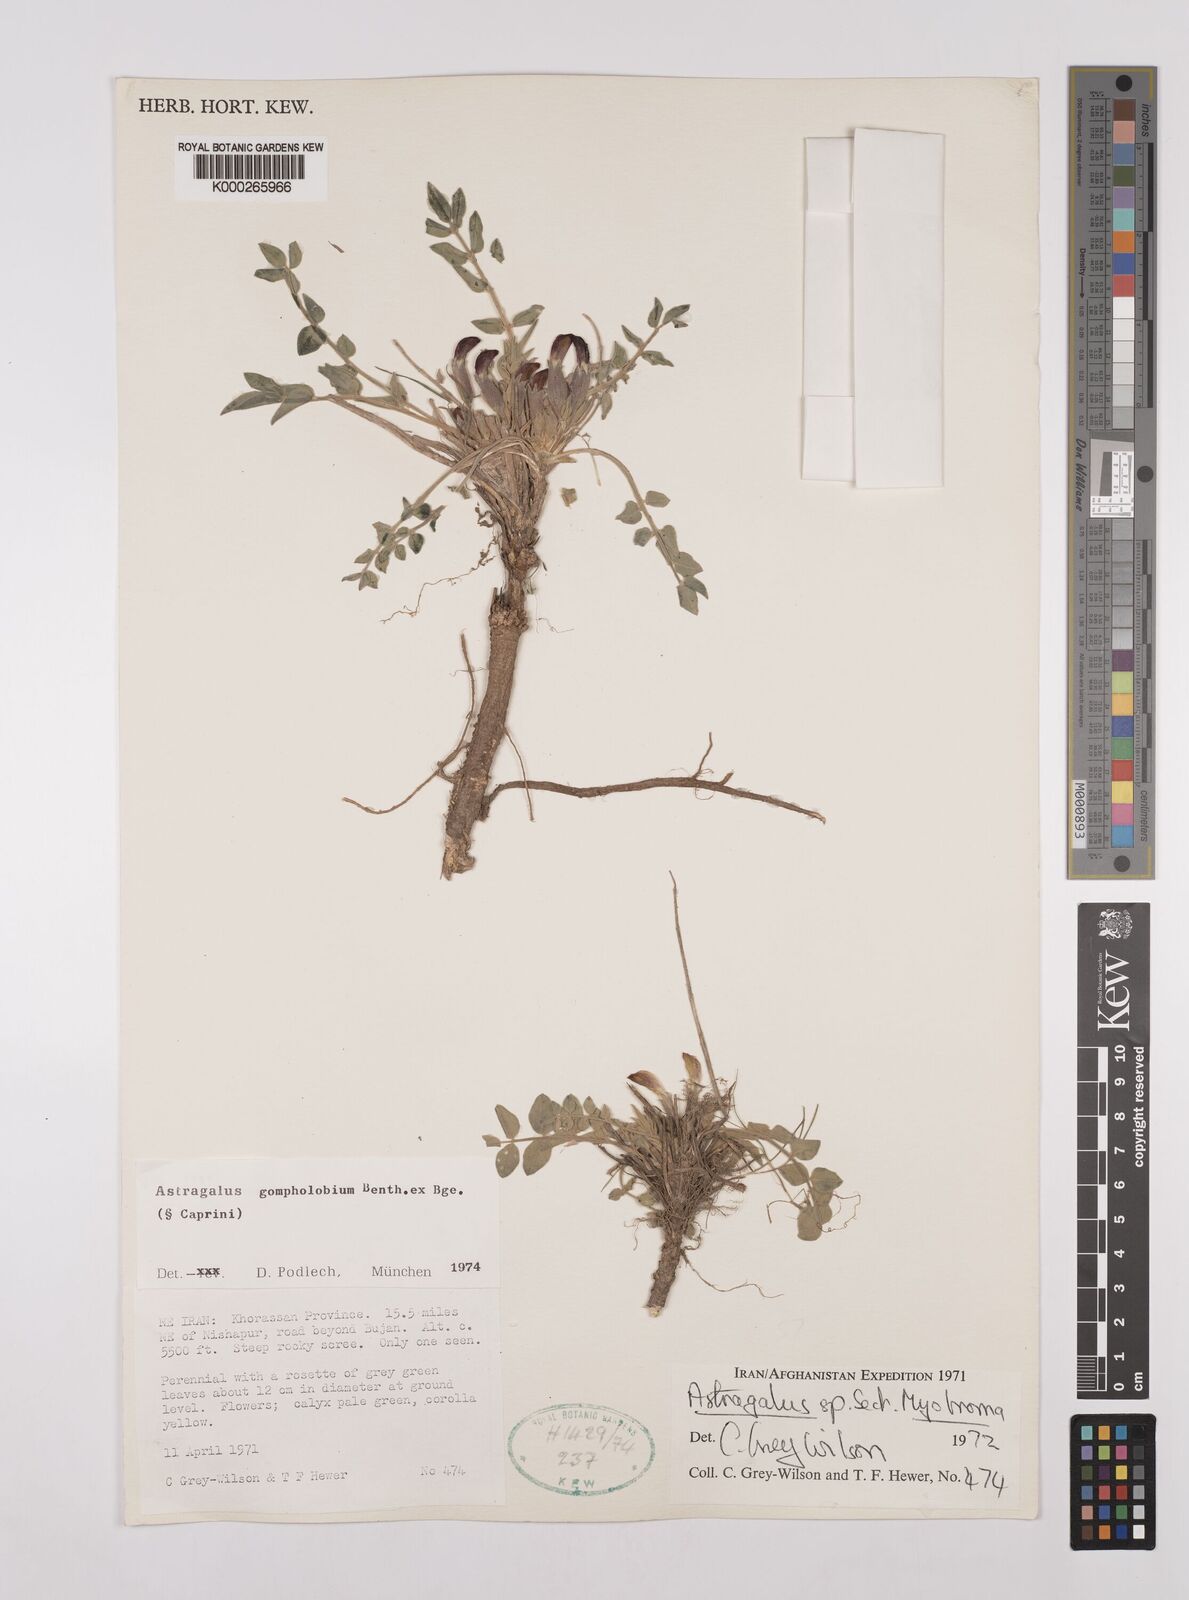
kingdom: Plantae
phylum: Tracheophyta
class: Magnoliopsida
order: Fabales
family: Fabaceae
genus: Astragalus
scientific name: Astragalus gompholobium
